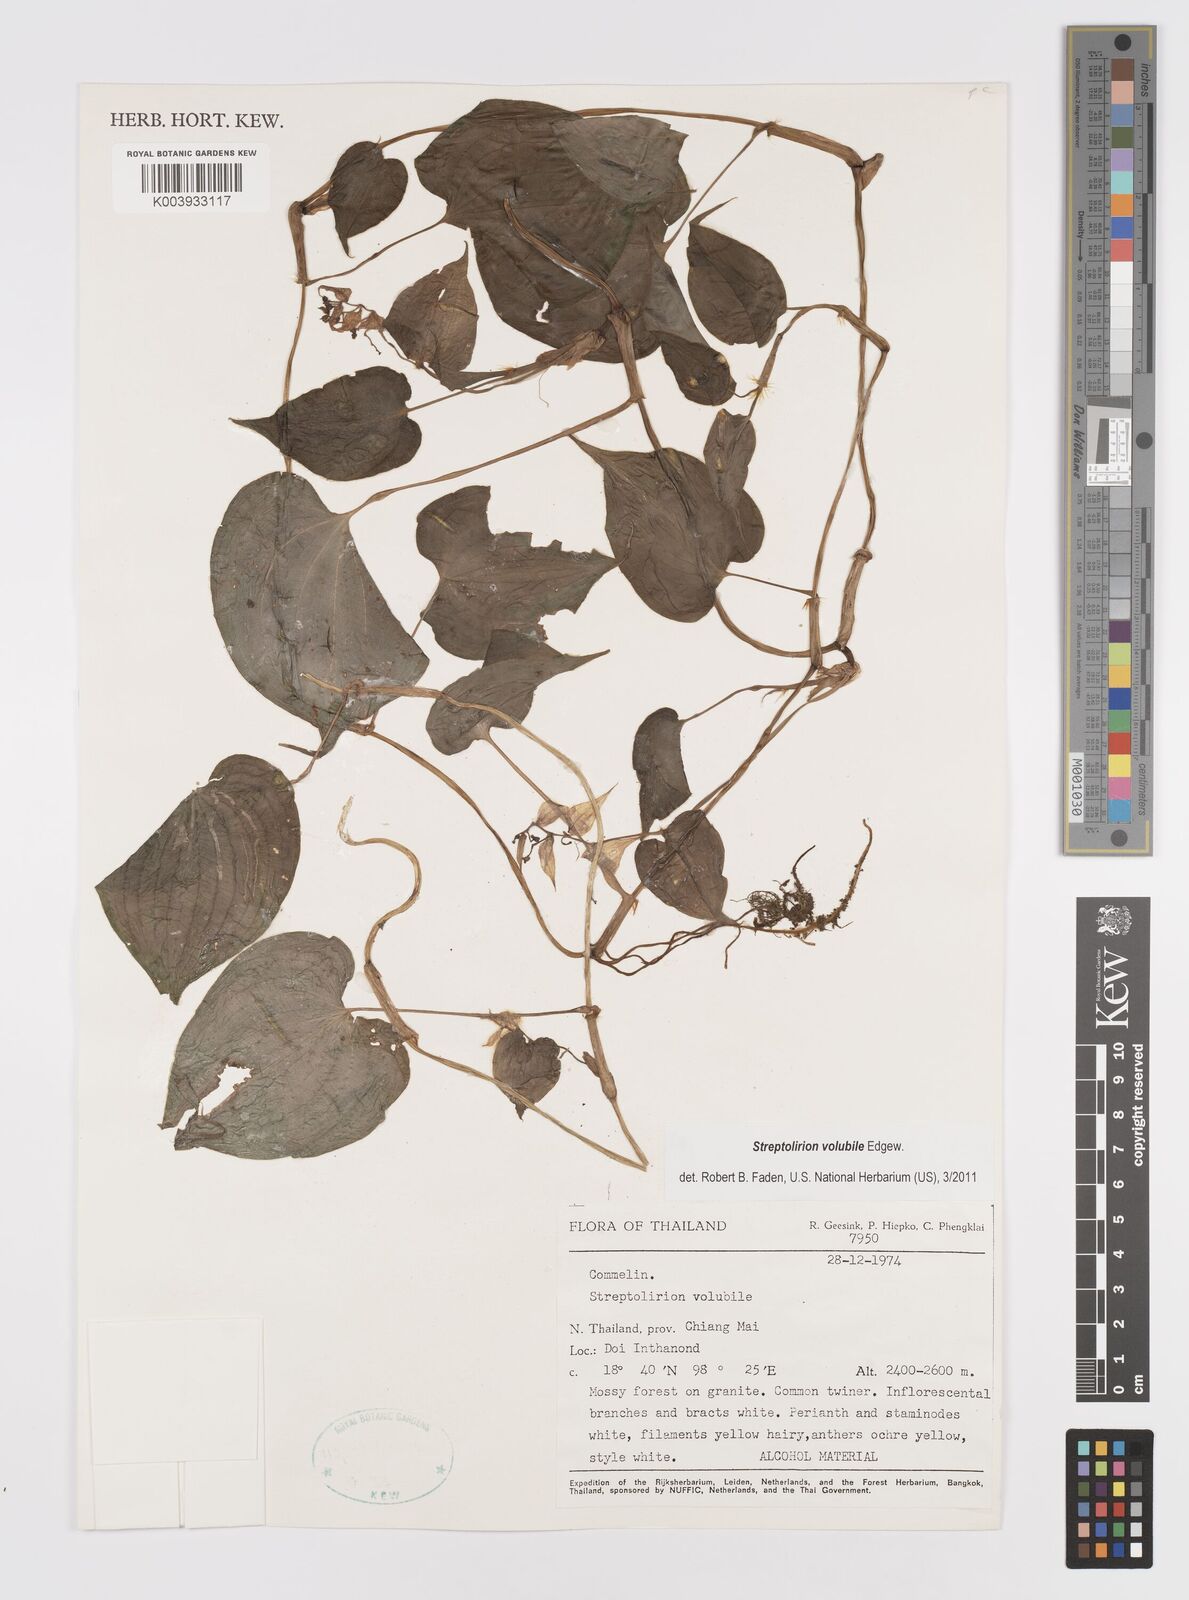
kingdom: Plantae
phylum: Tracheophyta
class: Liliopsida
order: Commelinales
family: Commelinaceae
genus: Streptolirion
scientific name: Streptolirion volubile
